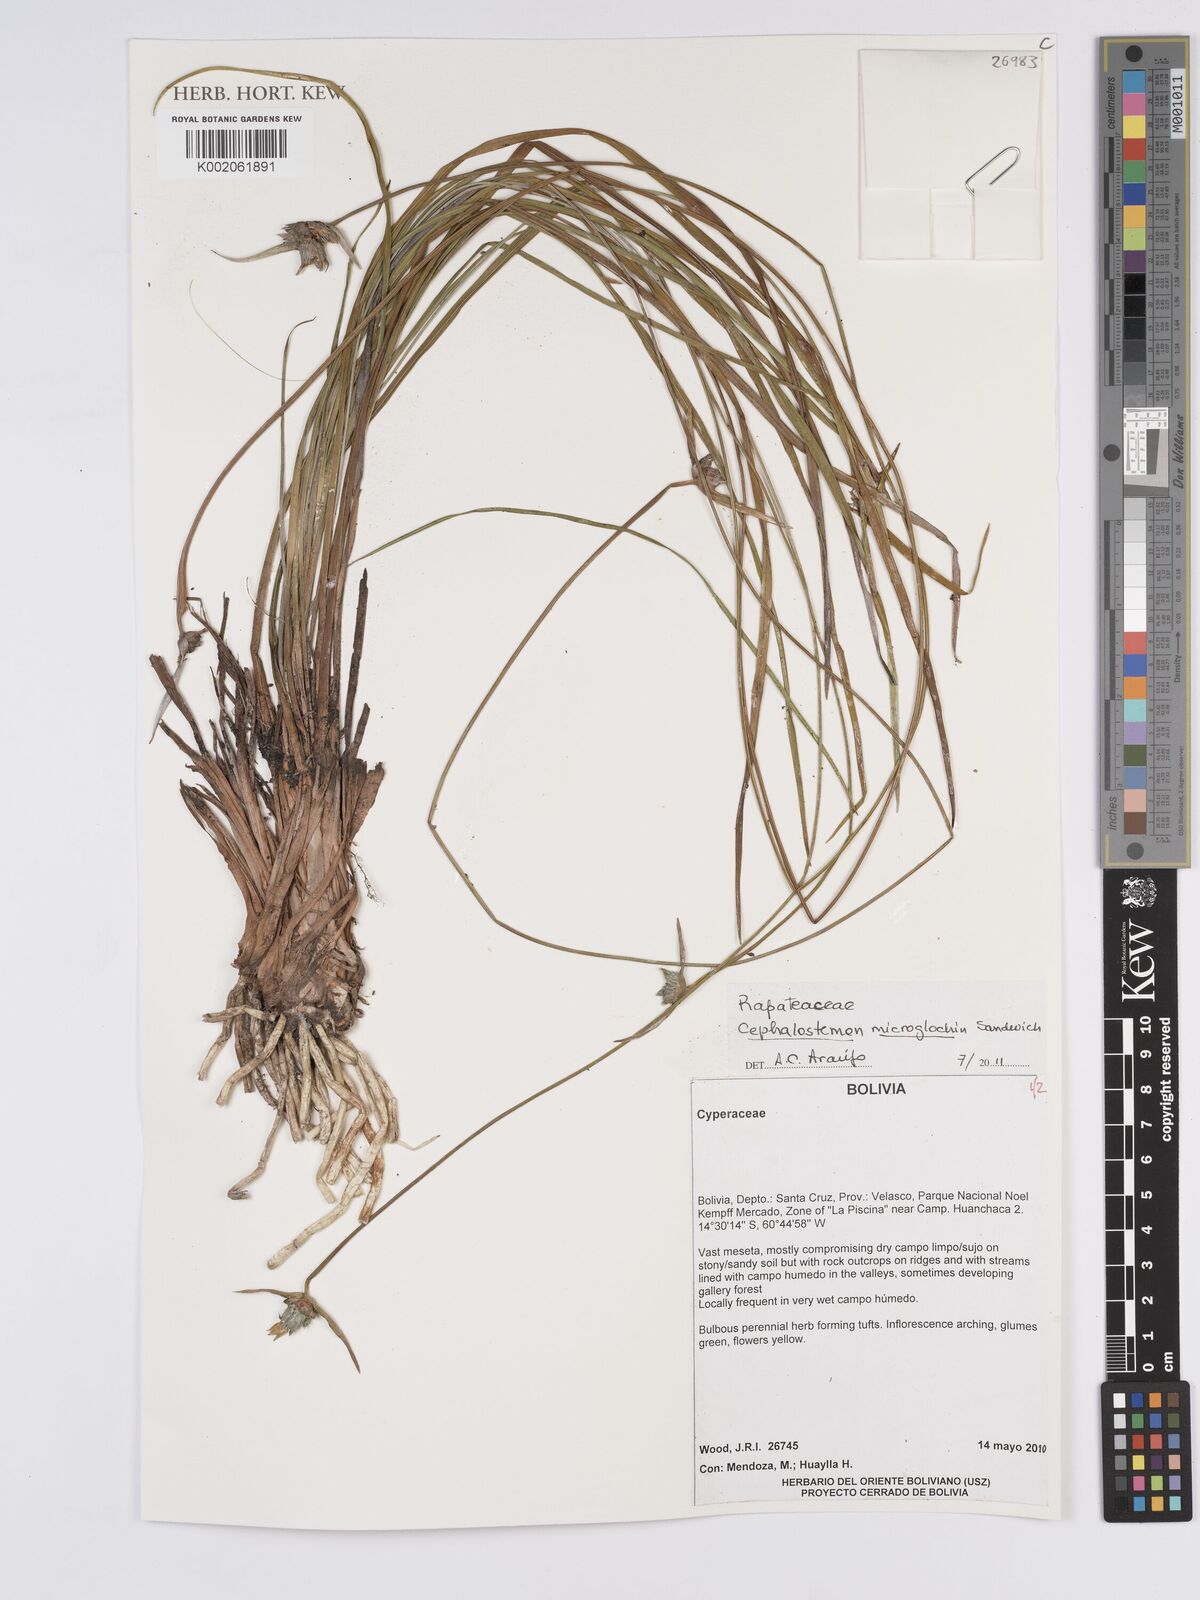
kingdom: Plantae
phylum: Tracheophyta
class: Liliopsida
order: Poales
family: Rapateaceae
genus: Cephalostemon
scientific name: Cephalostemon microglochin
